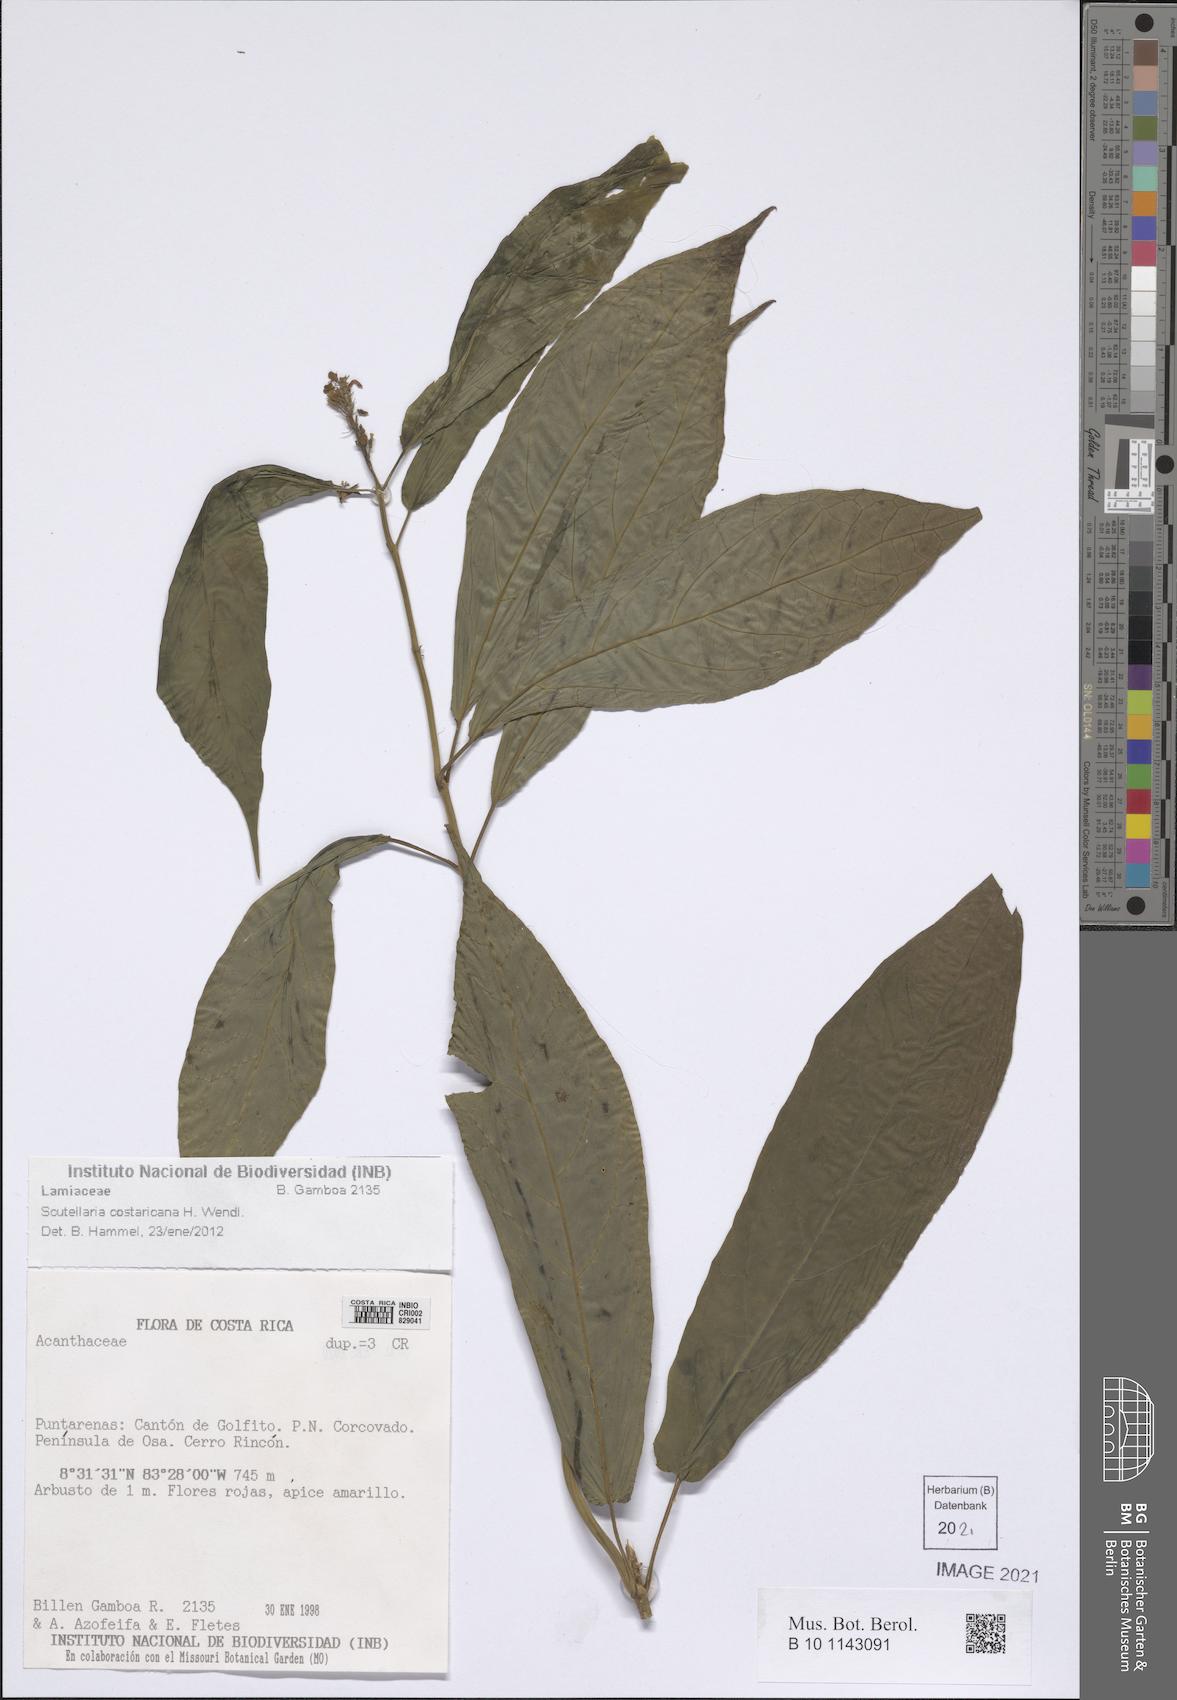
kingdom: Plantae
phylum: Tracheophyta
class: Magnoliopsida
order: Lamiales
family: Lamiaceae
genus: Scutellaria
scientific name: Scutellaria costaricana
